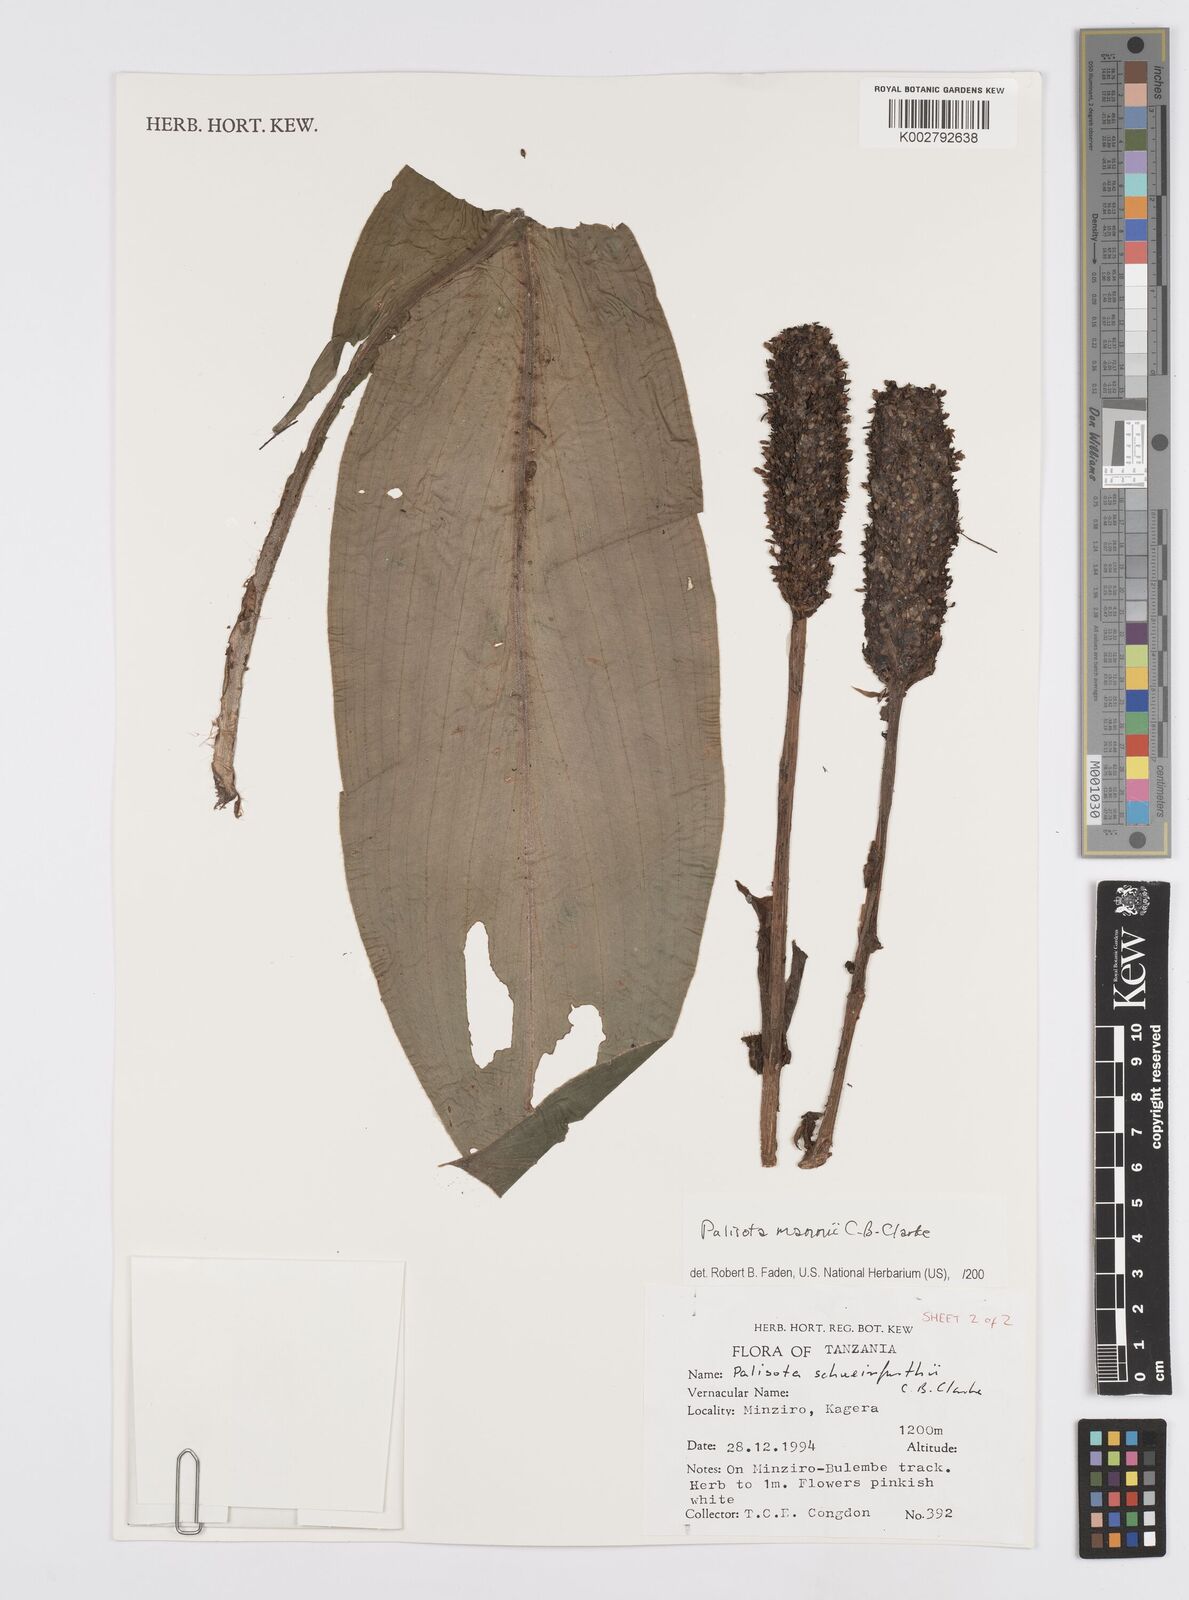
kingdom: Plantae
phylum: Tracheophyta
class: Liliopsida
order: Commelinales
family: Commelinaceae
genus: Palisota
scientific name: Palisota mannii
